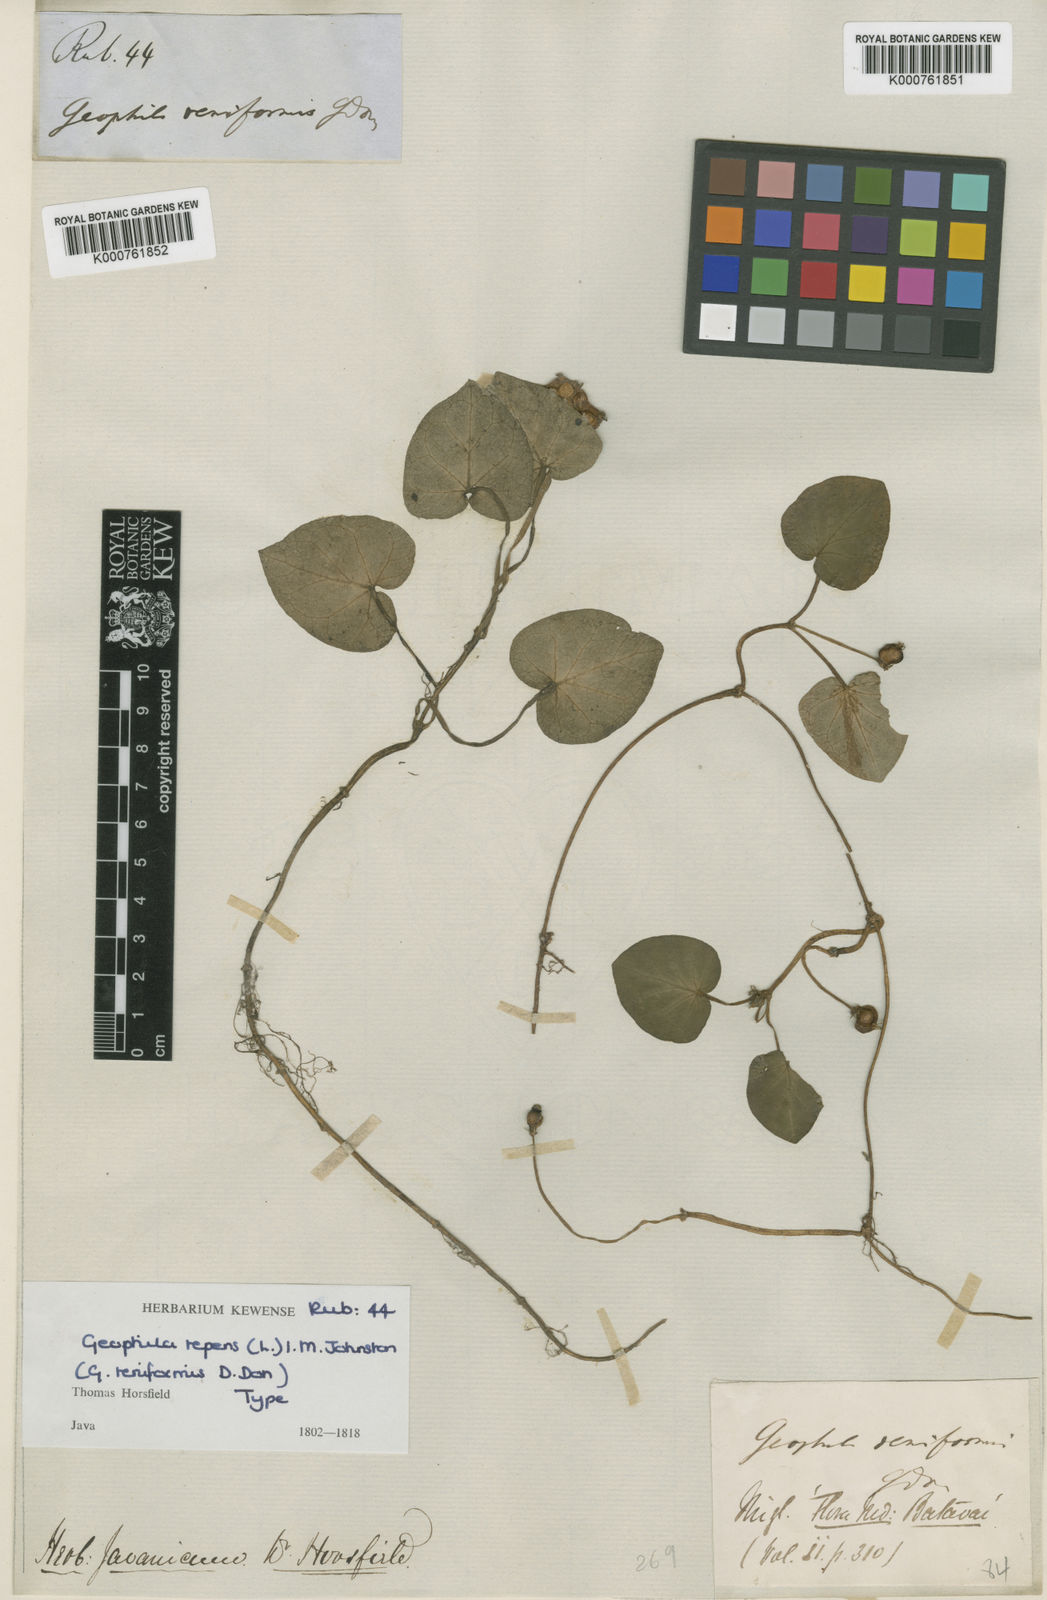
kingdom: Plantae
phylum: Tracheophyta
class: Magnoliopsida
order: Gentianales
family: Rubiaceae
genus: Geophila
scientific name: Geophila repens
